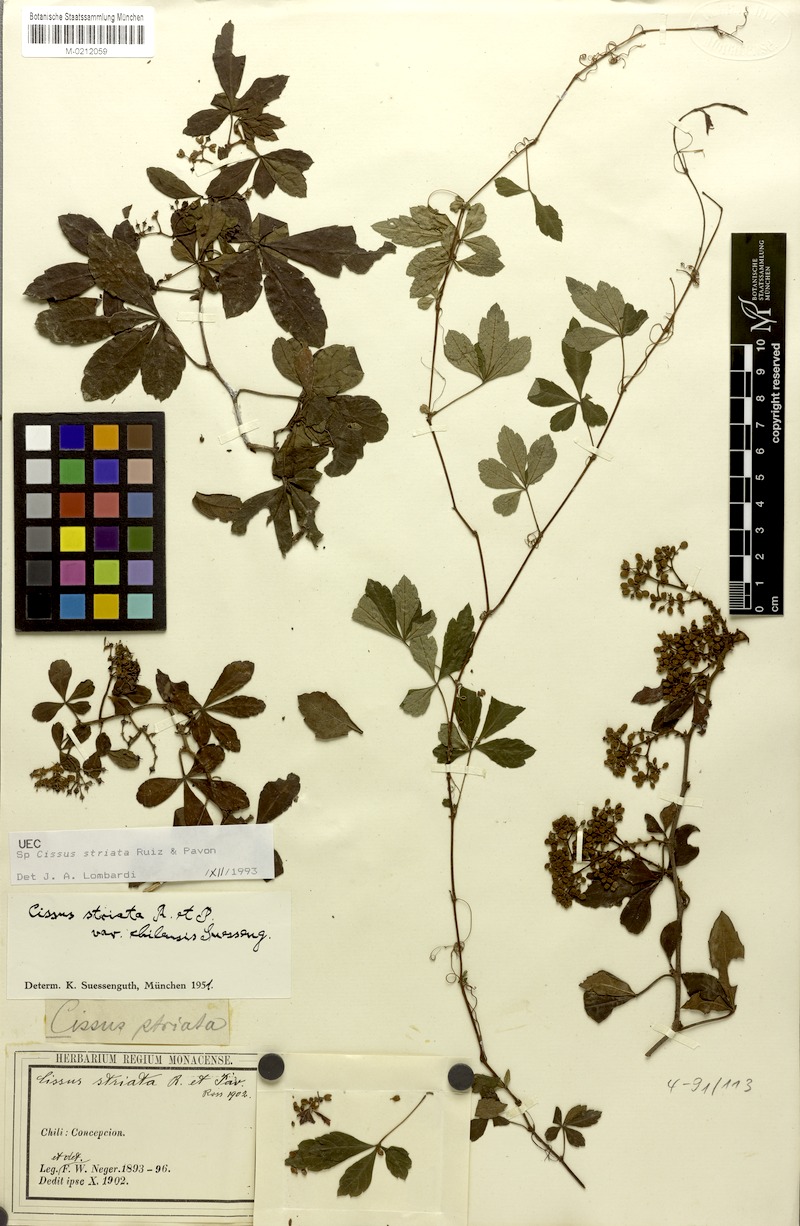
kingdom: Plantae
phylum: Tracheophyta
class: Magnoliopsida
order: Vitales
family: Vitaceae
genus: Clematicissus
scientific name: Clematicissus striata
